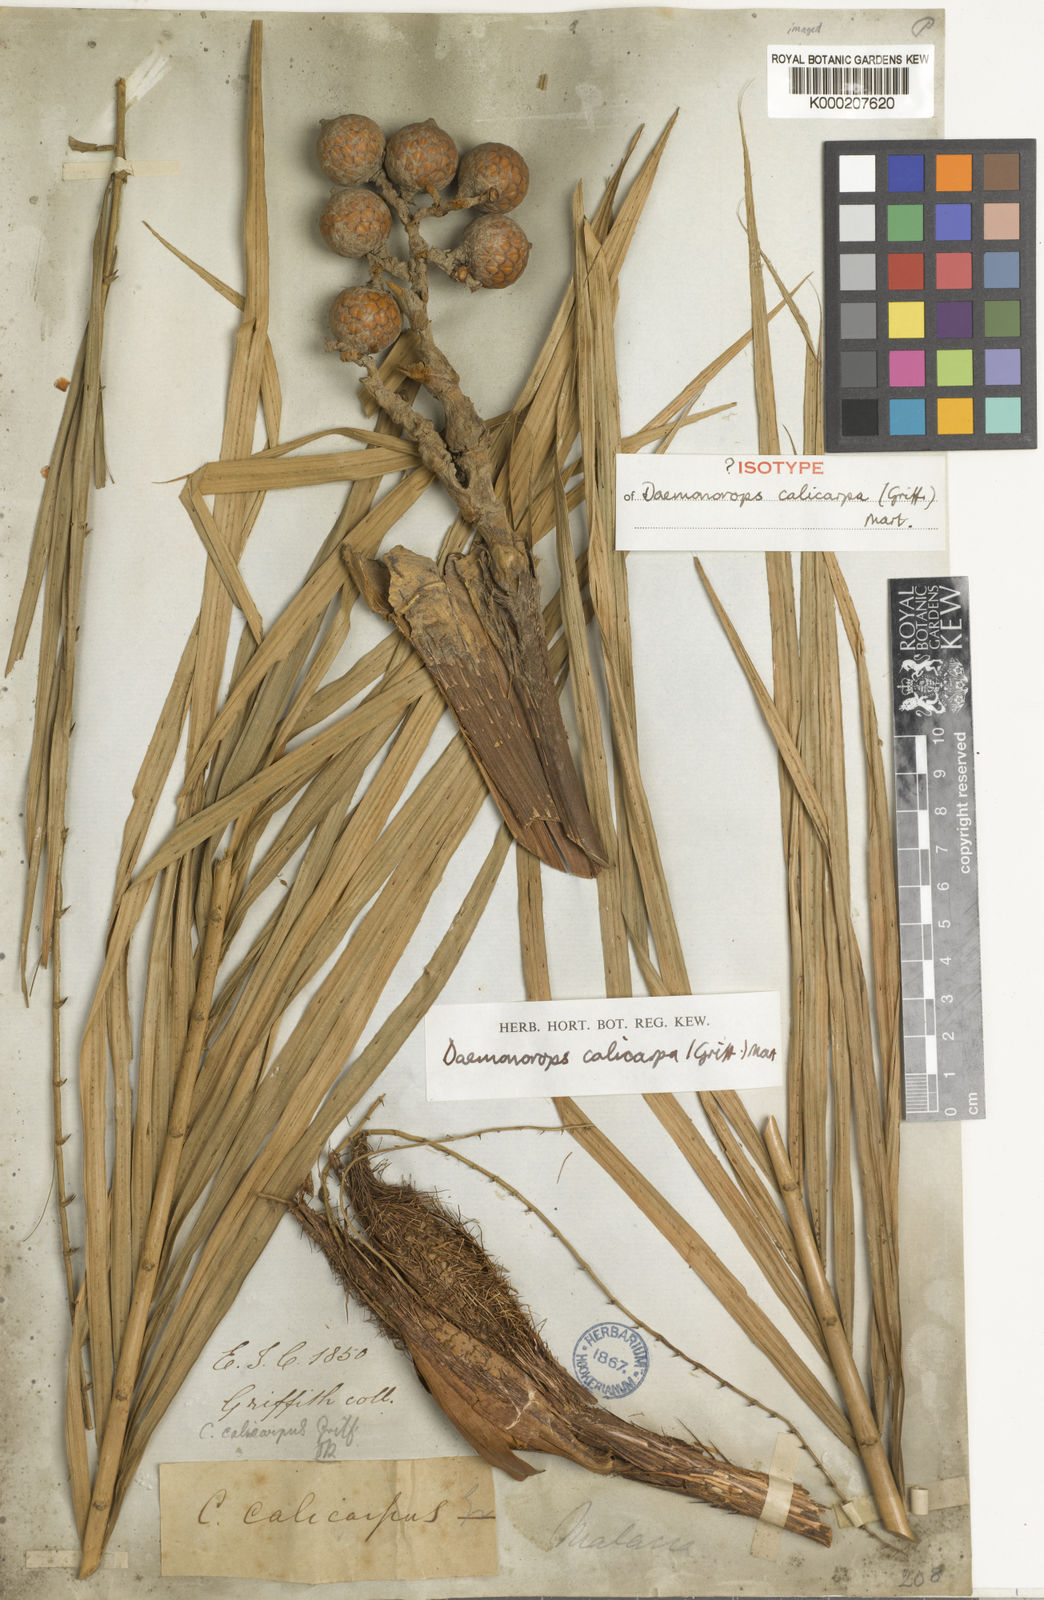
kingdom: Plantae
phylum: Tracheophyta
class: Liliopsida
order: Arecales
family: Arecaceae
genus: Calamus
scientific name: Calamus calicarpus
